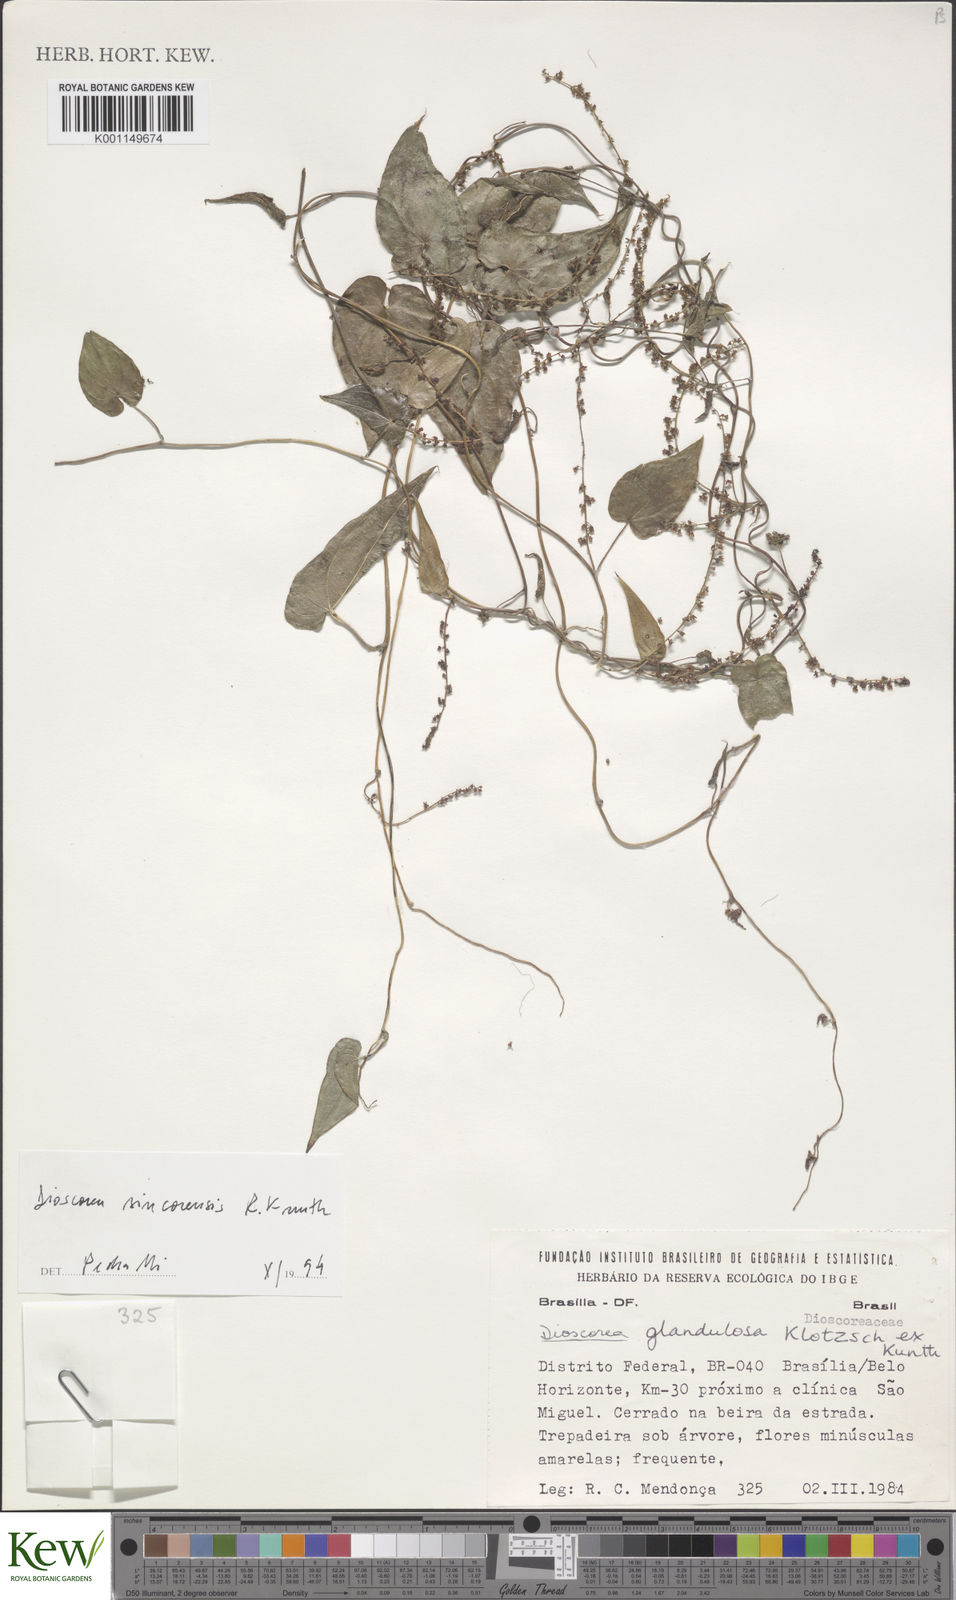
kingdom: Plantae
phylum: Tracheophyta
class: Liliopsida
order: Dioscoreales
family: Dioscoreaceae
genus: Dioscorea
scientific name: Dioscorea sincorensis
